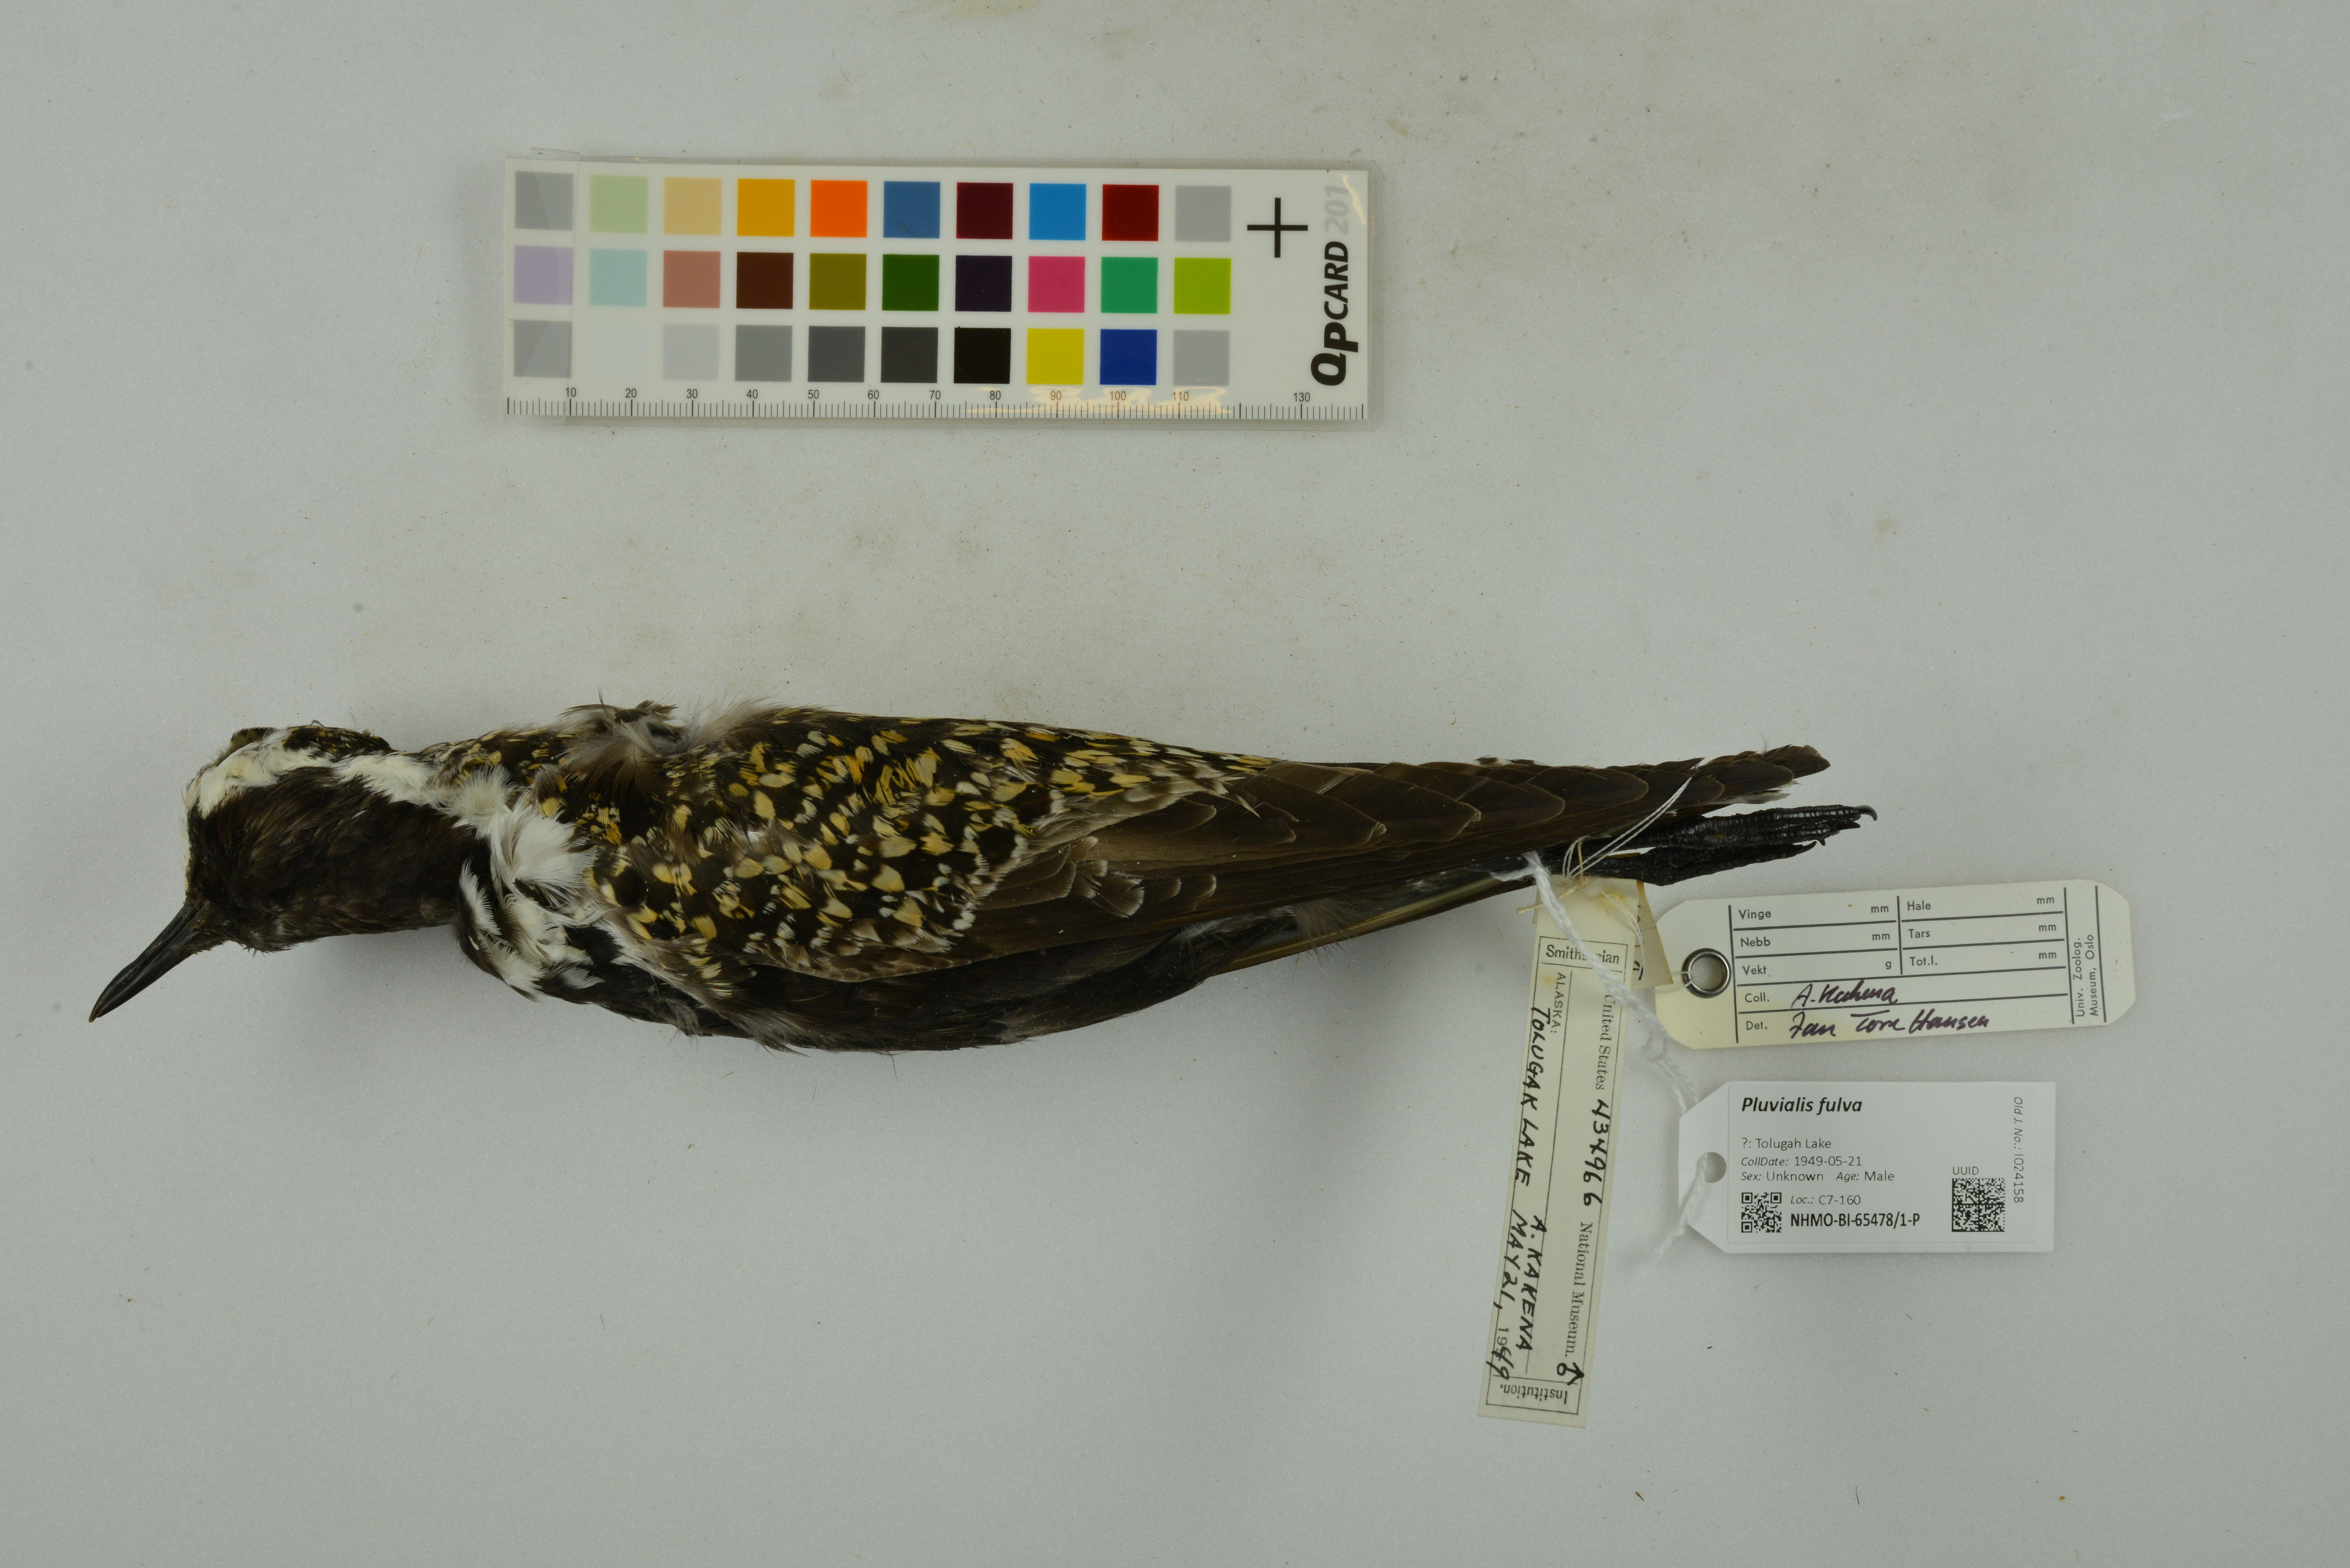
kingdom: Animalia
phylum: Chordata
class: Aves
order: Charadriiformes
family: Charadriidae
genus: Pluvialis
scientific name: Pluvialis fulva
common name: Pacific golden plover
